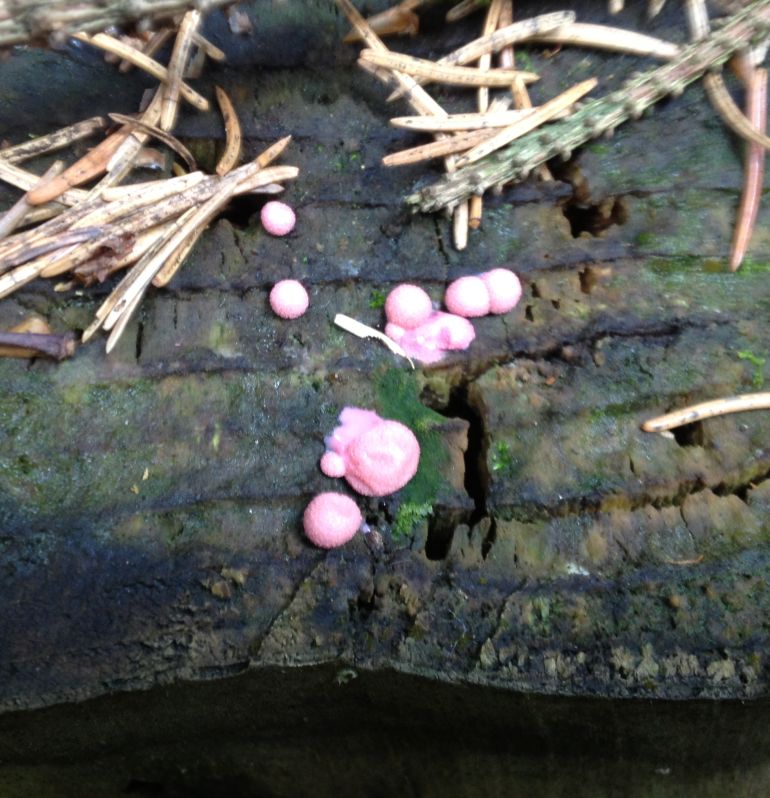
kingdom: Protozoa
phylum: Mycetozoa
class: Myxomycetes
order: Cribrariales
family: Tubiferaceae
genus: Lycogala
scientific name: Lycogala epidendrum
